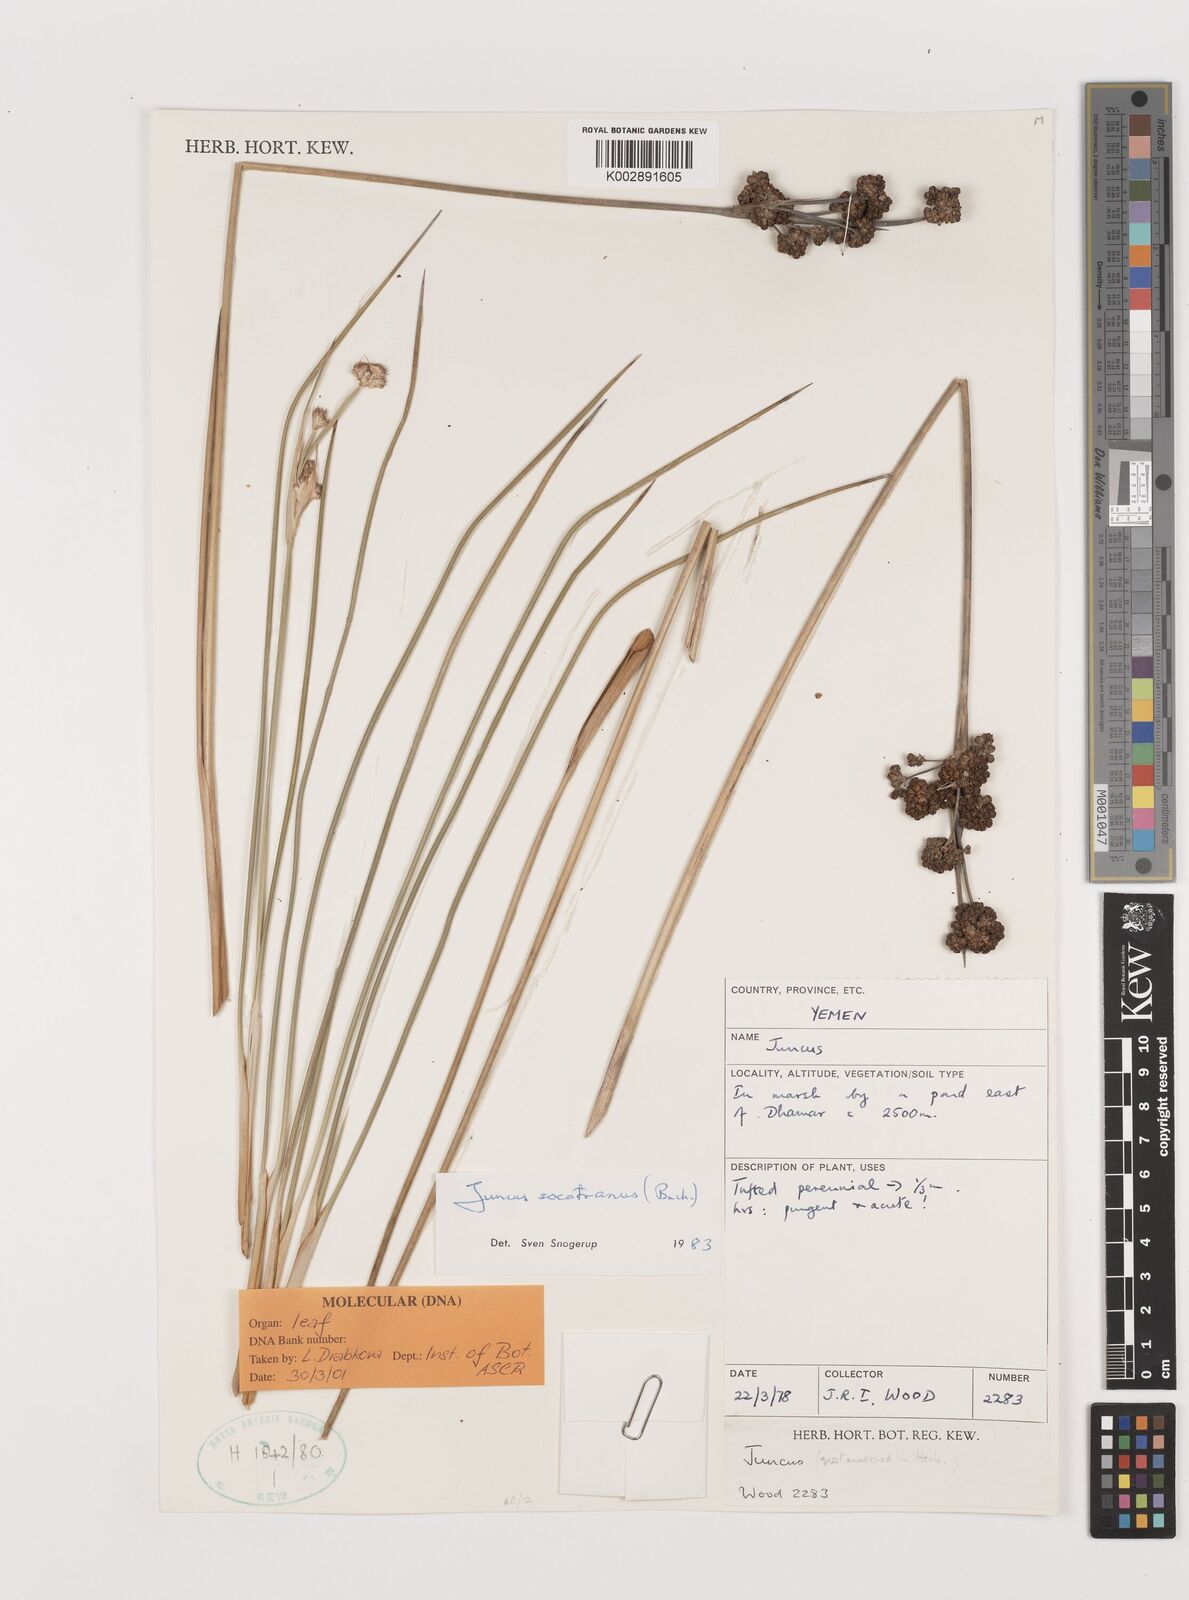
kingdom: Plantae
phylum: Tracheophyta
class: Liliopsida
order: Poales
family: Juncaceae
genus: Juncus
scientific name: Juncus socotranus
